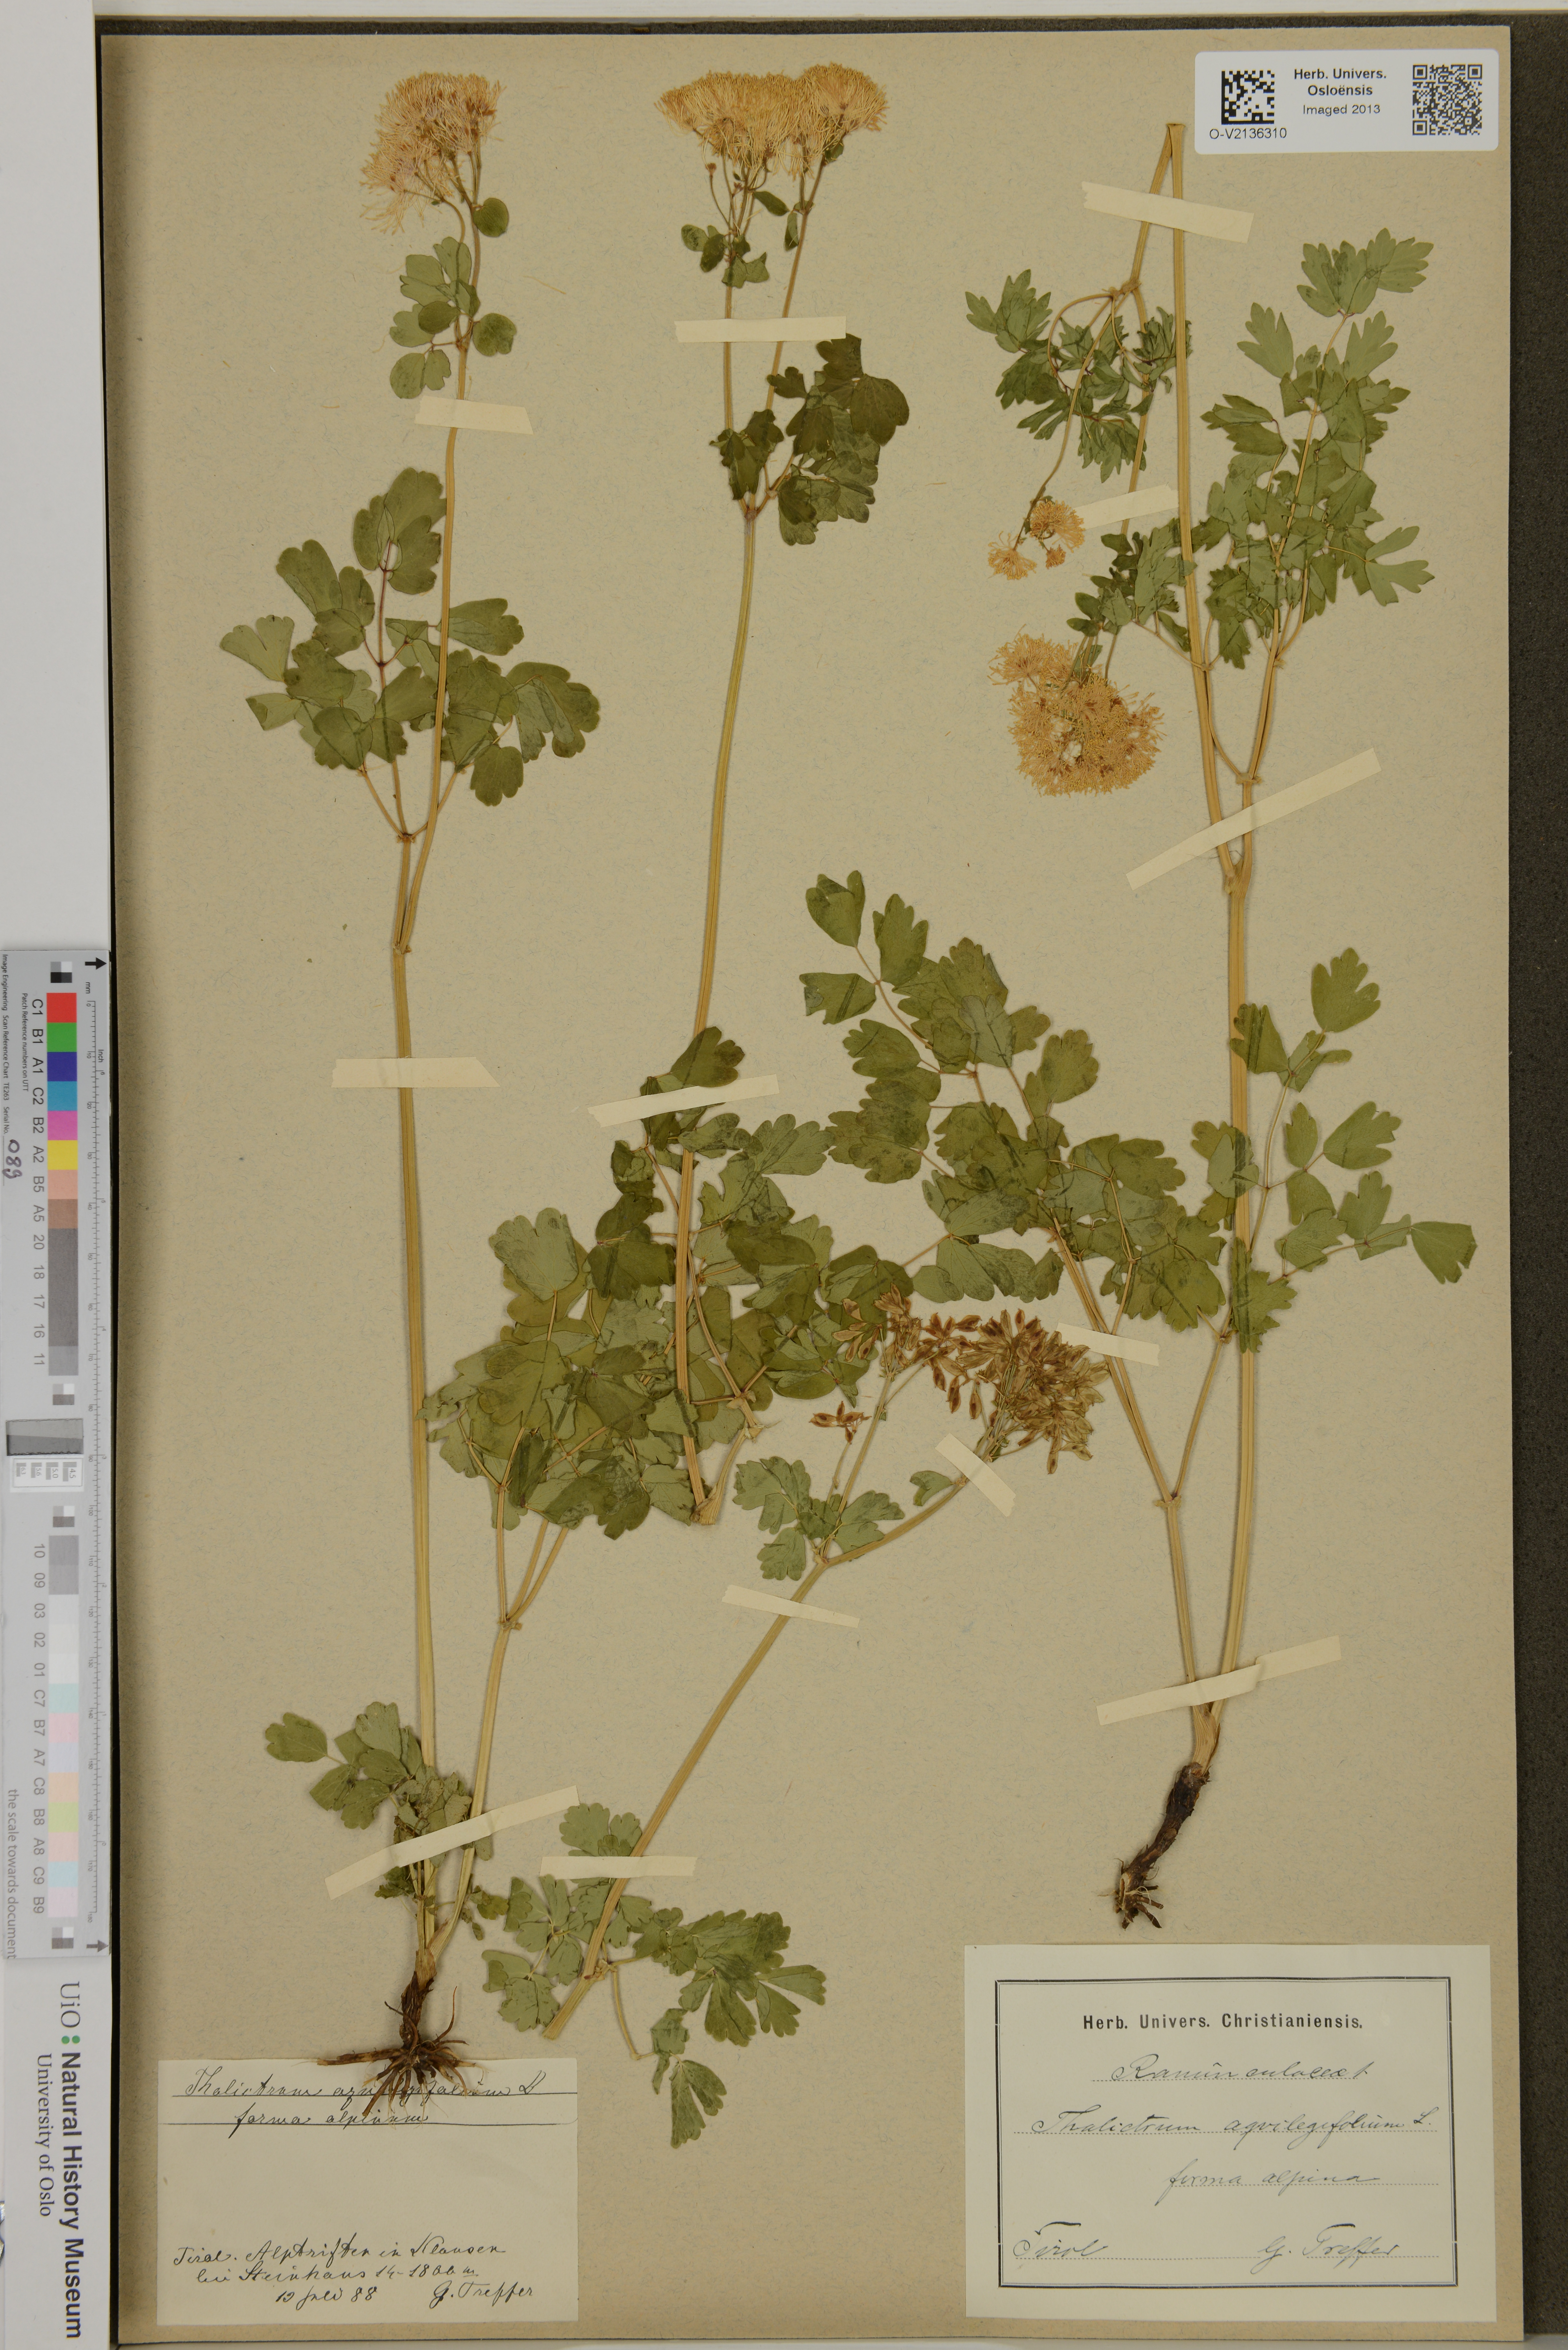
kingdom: Plantae
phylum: Tracheophyta
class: Magnoliopsida
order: Ranunculales
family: Ranunculaceae
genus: Thalictrum
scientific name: Thalictrum aquilegiifolium
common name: French meadow-rue
